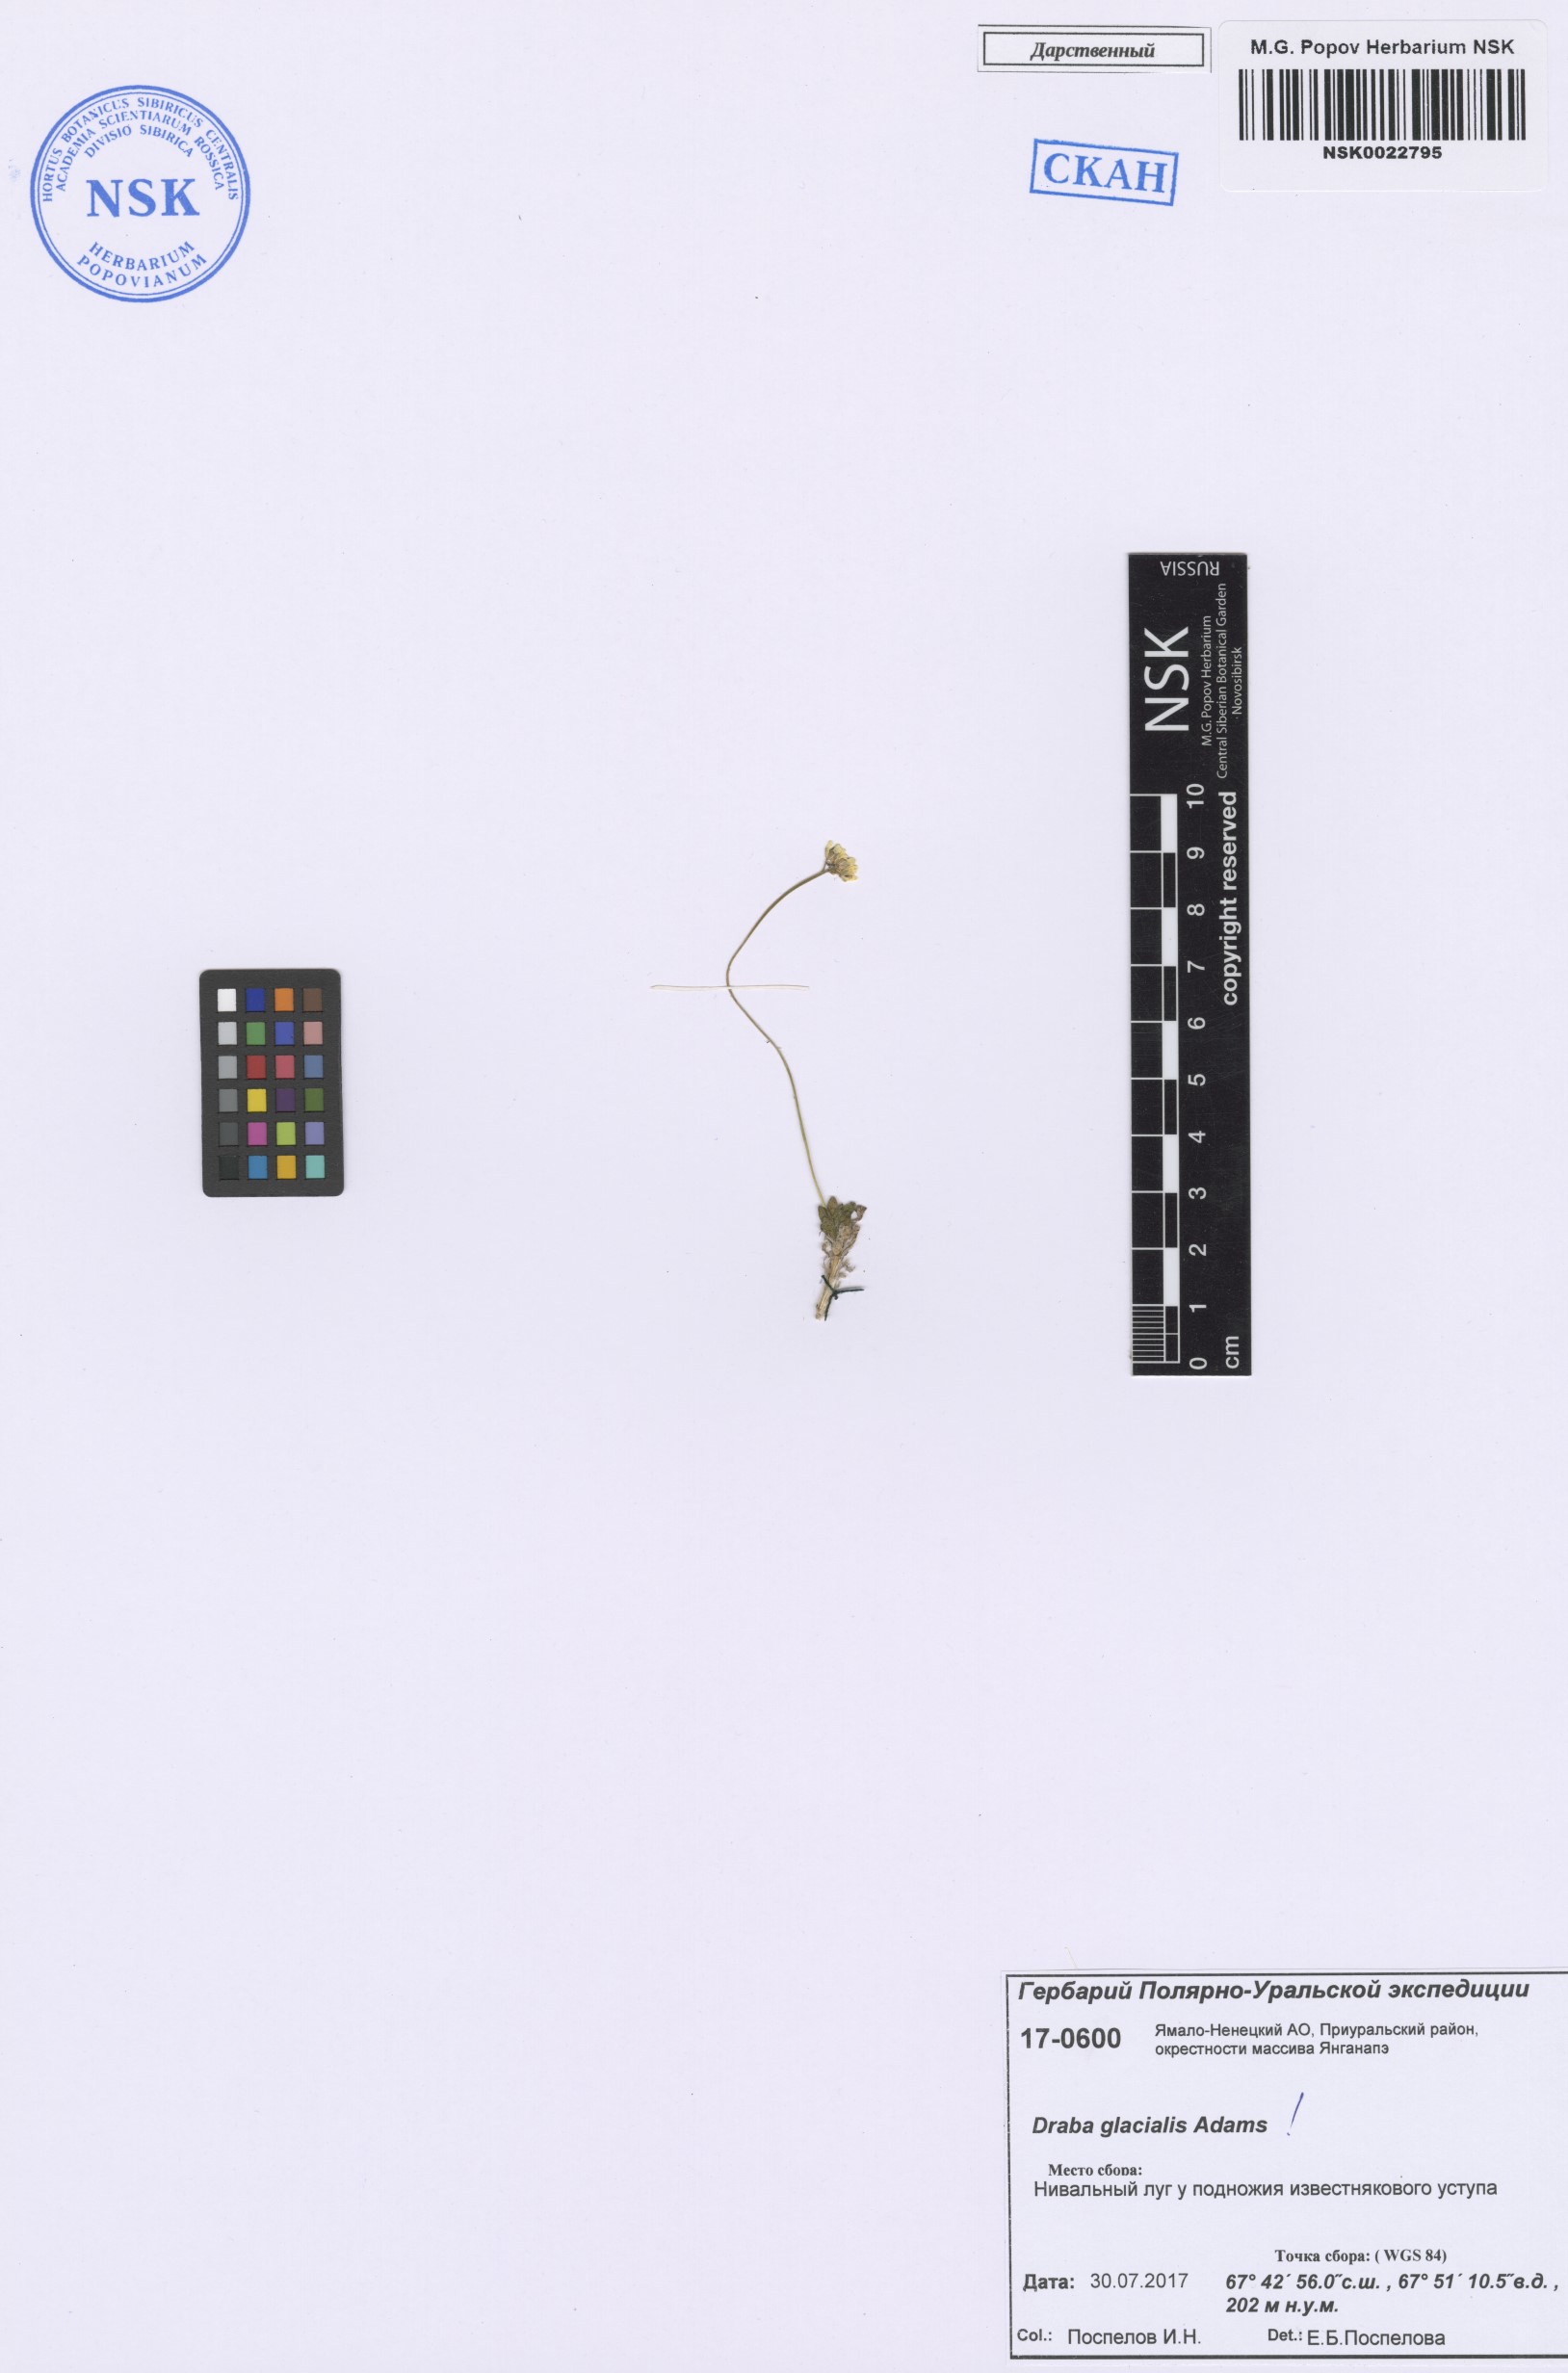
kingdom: Plantae
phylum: Tracheophyta
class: Magnoliopsida
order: Brassicales
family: Brassicaceae
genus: Draba
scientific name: Draba glacialis
